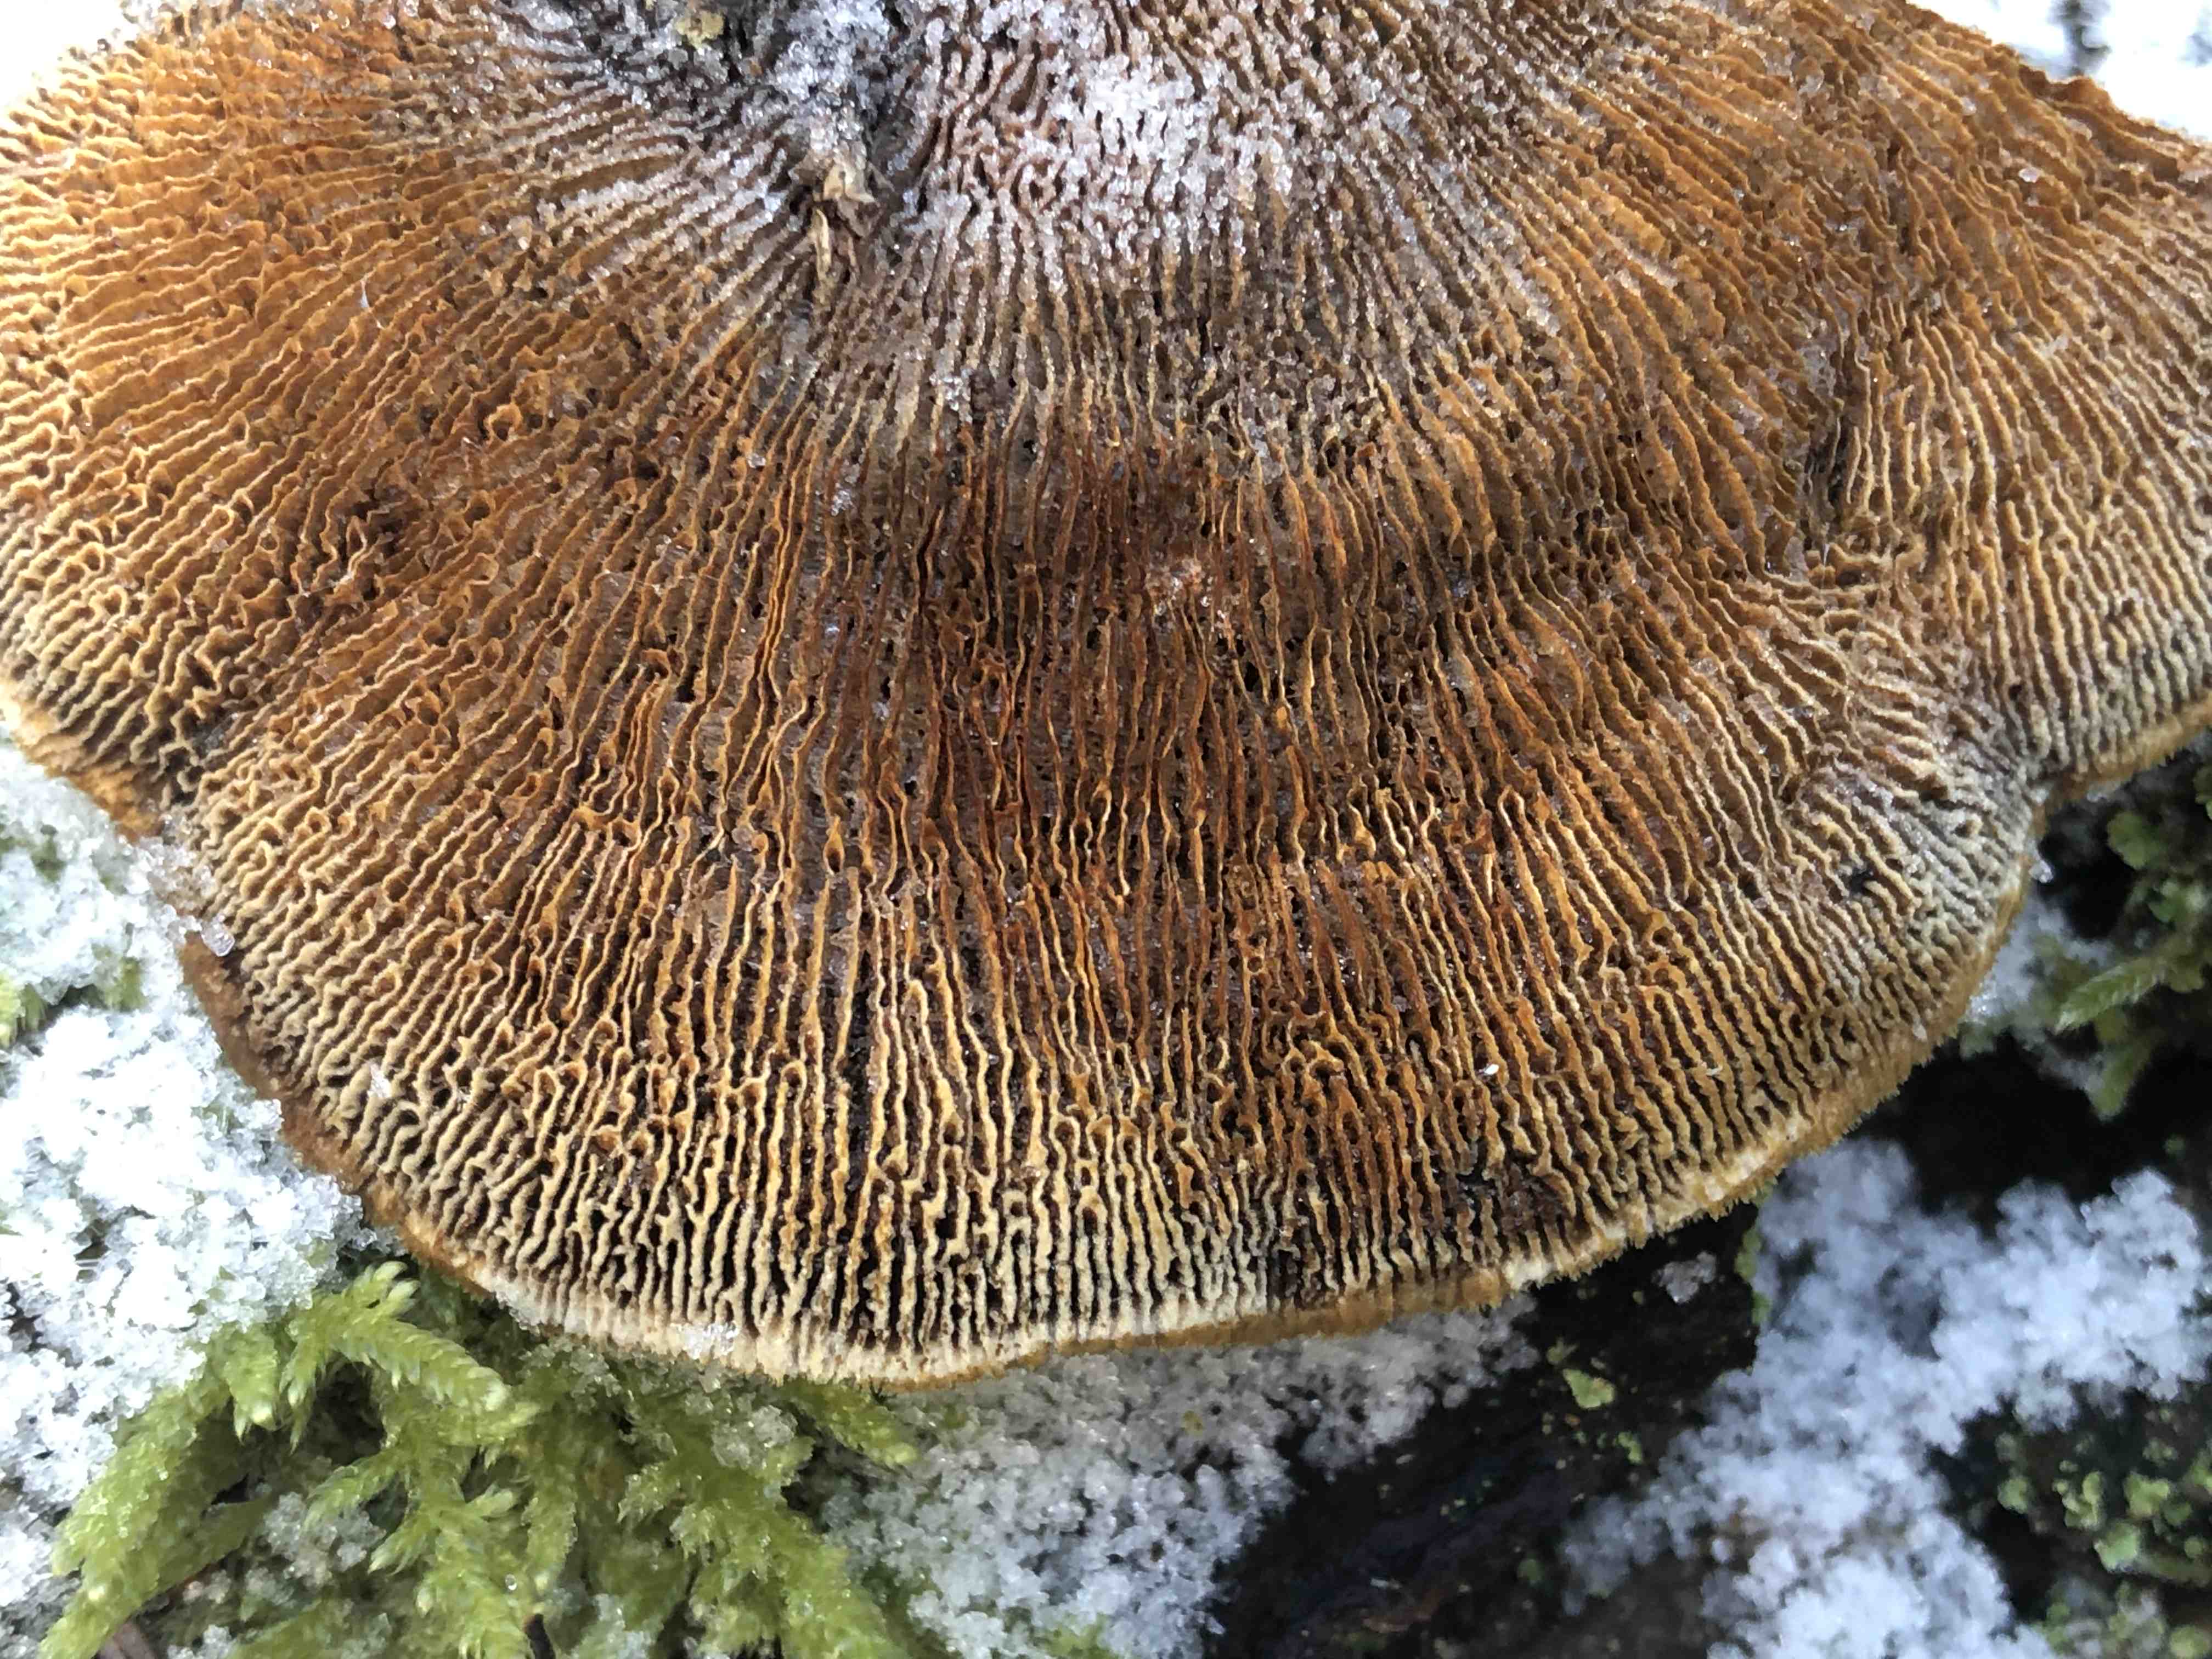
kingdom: Fungi
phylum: Basidiomycota
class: Agaricomycetes
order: Gloeophyllales
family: Gloeophyllaceae
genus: Gloeophyllum
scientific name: Gloeophyllum sepiarium
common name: fyrre-korkhat
